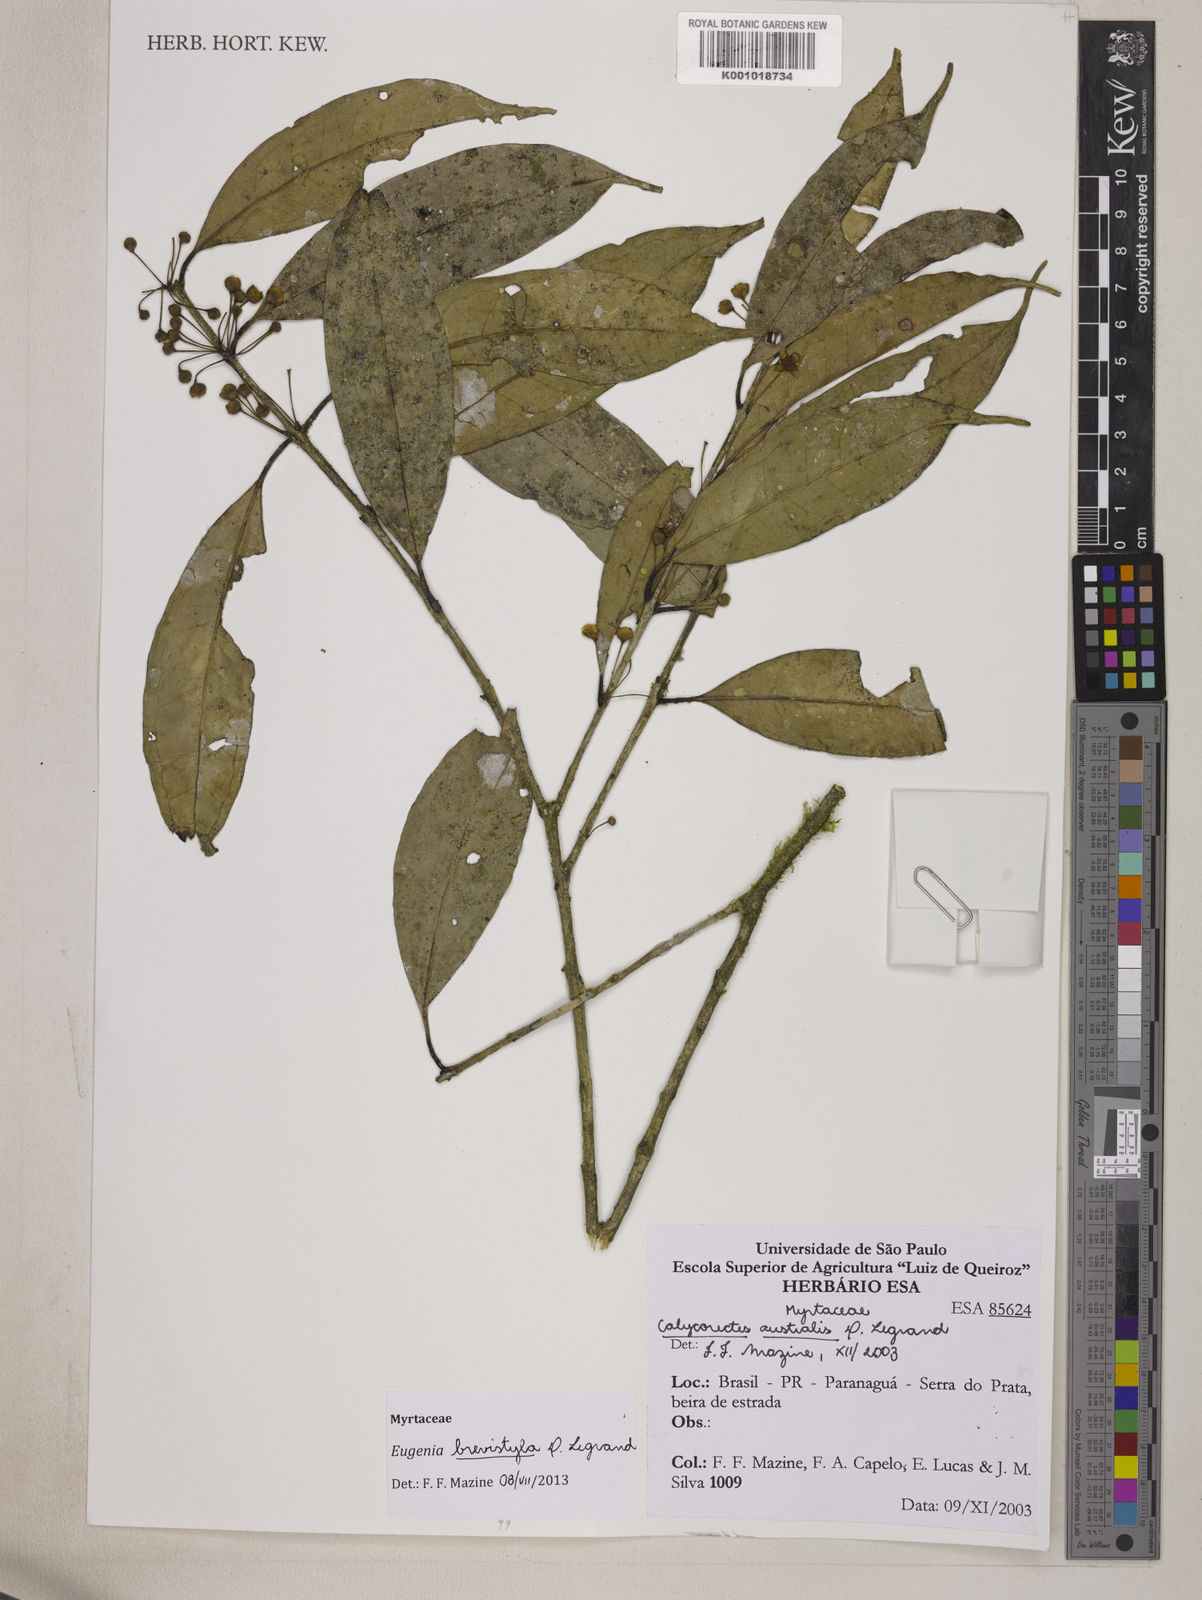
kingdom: Plantae
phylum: Tracheophyta
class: Magnoliopsida
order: Myrtales
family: Myrtaceae
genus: Eugenia
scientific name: Eugenia brevistyla
